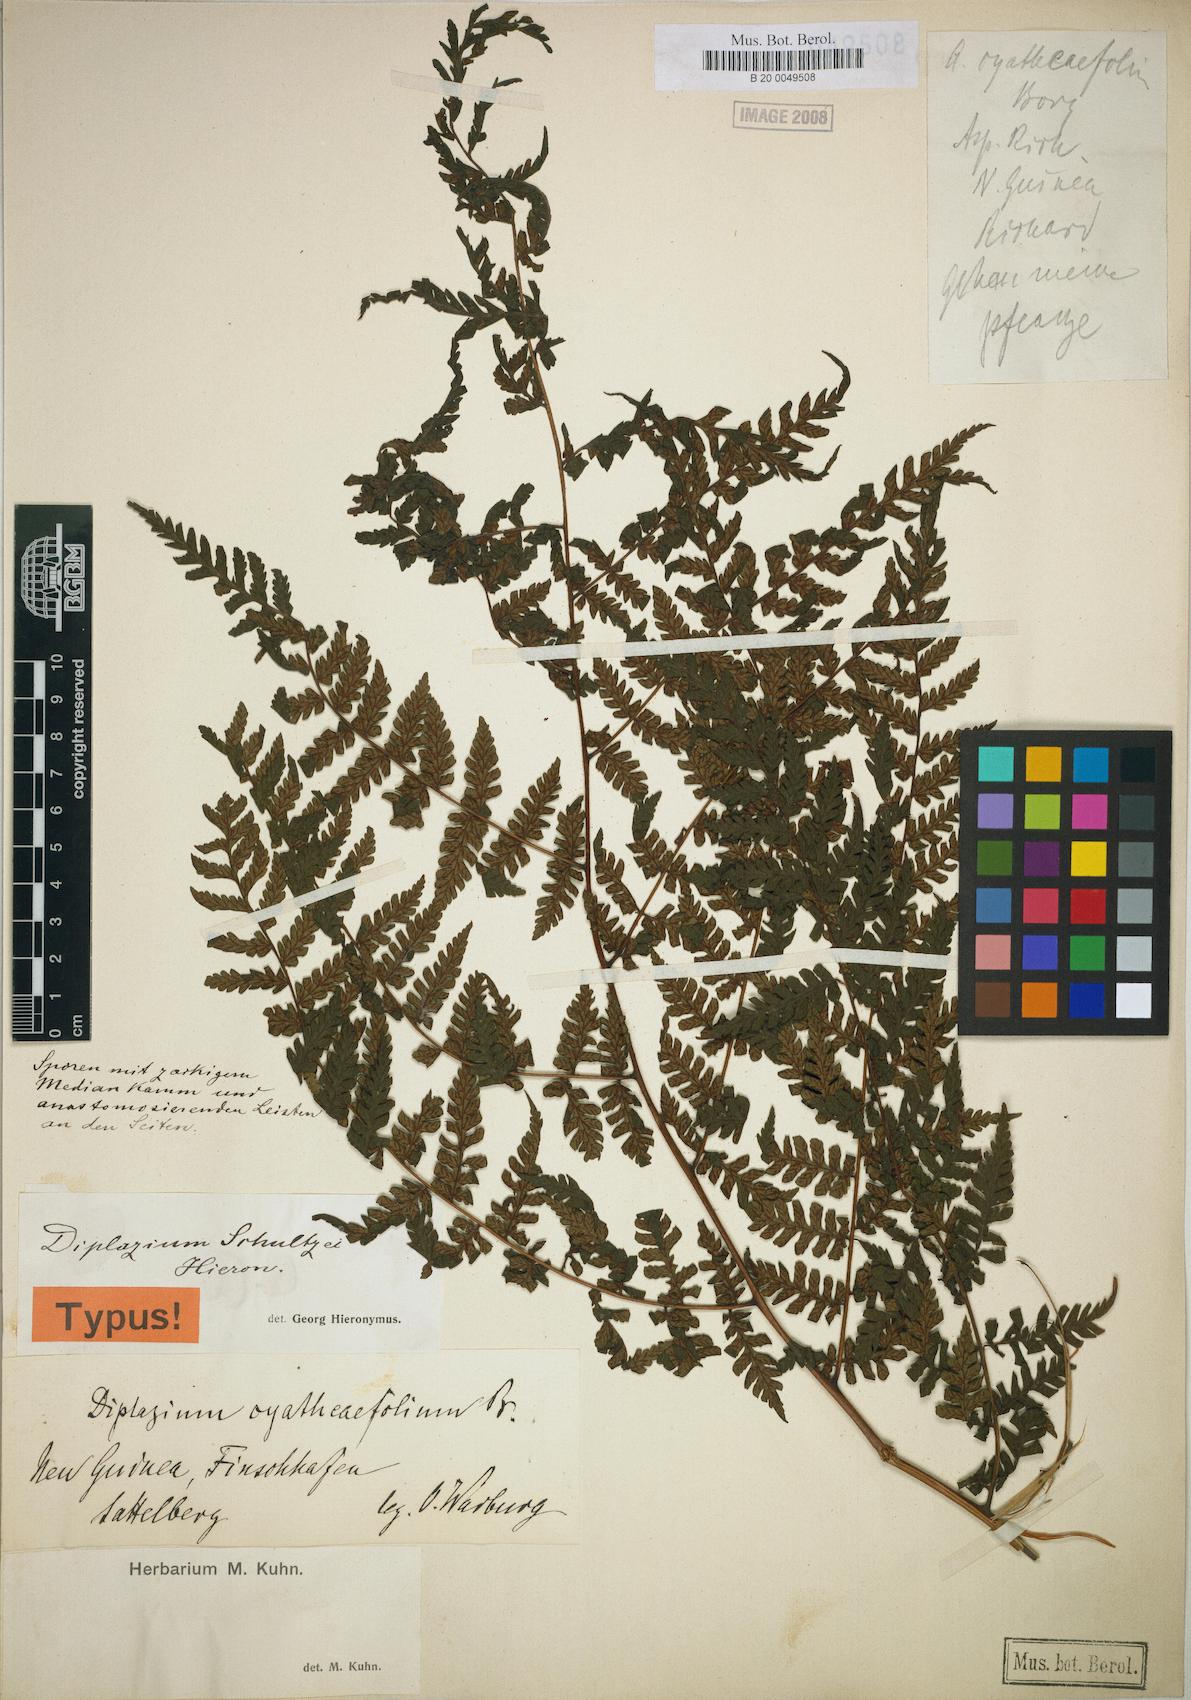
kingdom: Plantae
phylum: Tracheophyta
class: Polypodiopsida
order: Polypodiales
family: Athyriaceae
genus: Diplazium
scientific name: Diplazium schultzei
